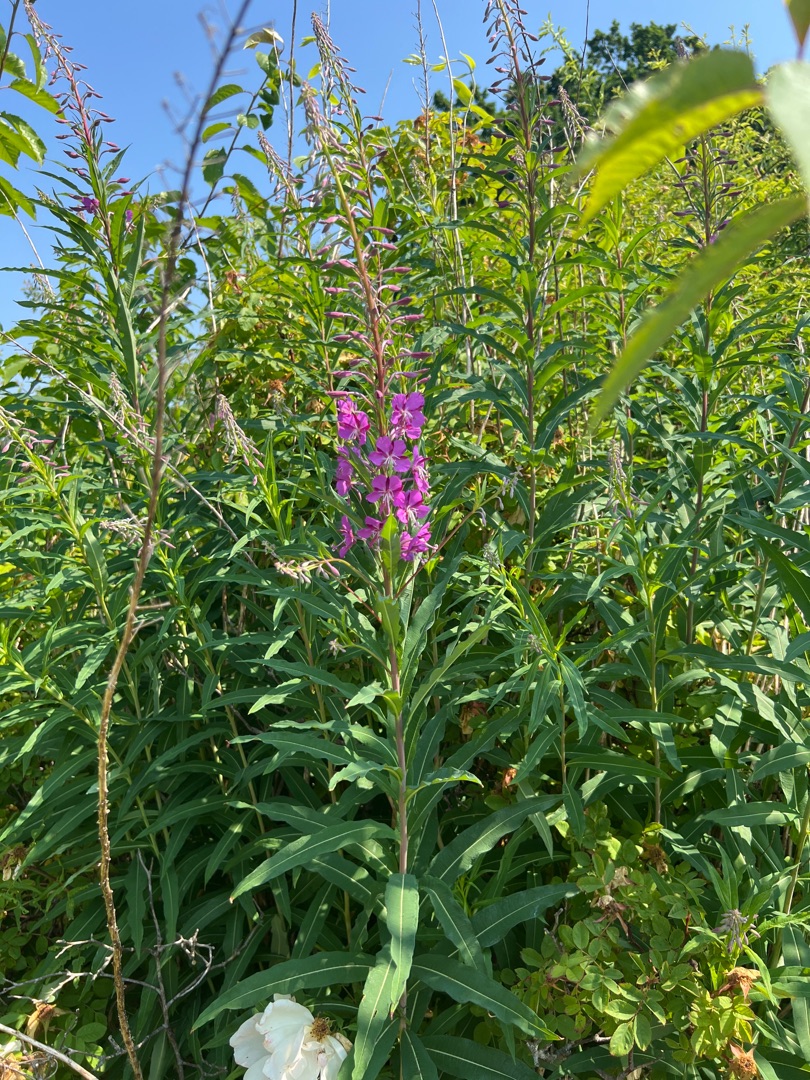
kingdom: Plantae
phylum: Tracheophyta
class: Magnoliopsida
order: Myrtales
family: Onagraceae
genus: Chamaenerion
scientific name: Chamaenerion angustifolium
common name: Gederams
